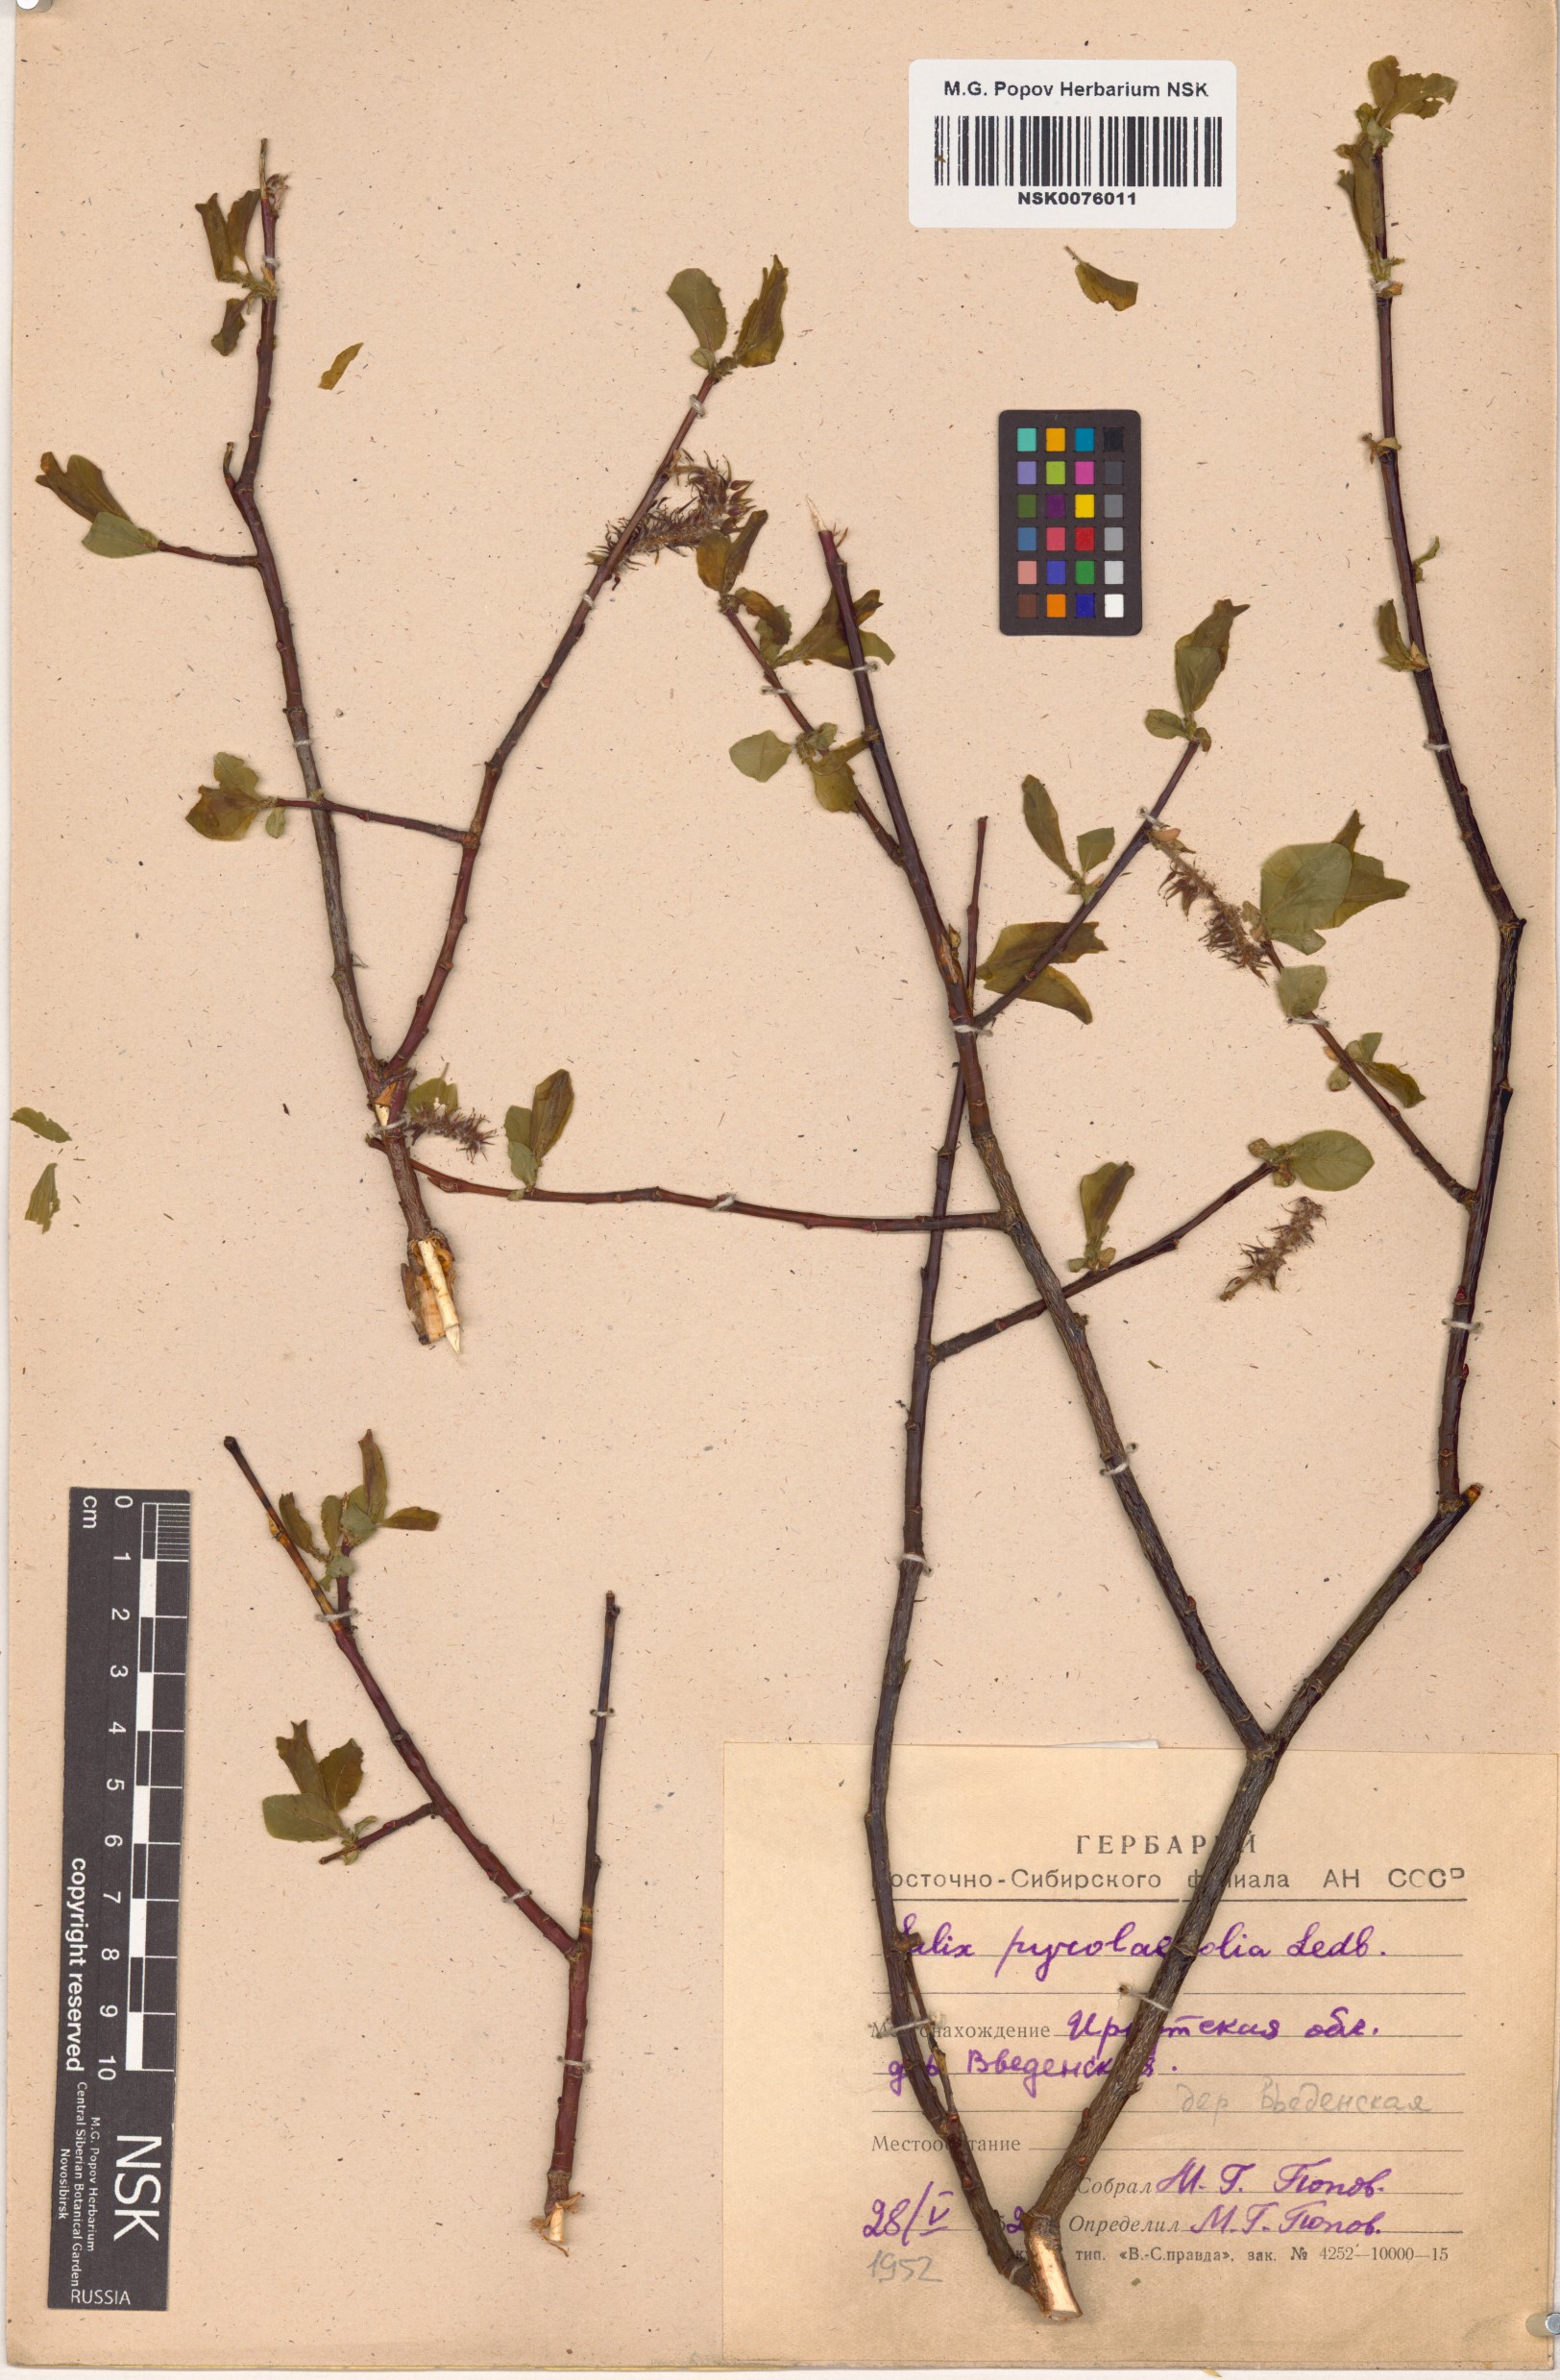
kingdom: Plantae
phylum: Tracheophyta
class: Magnoliopsida
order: Malpighiales
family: Salicaceae
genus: Salix
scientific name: Salix pyrolifolia
